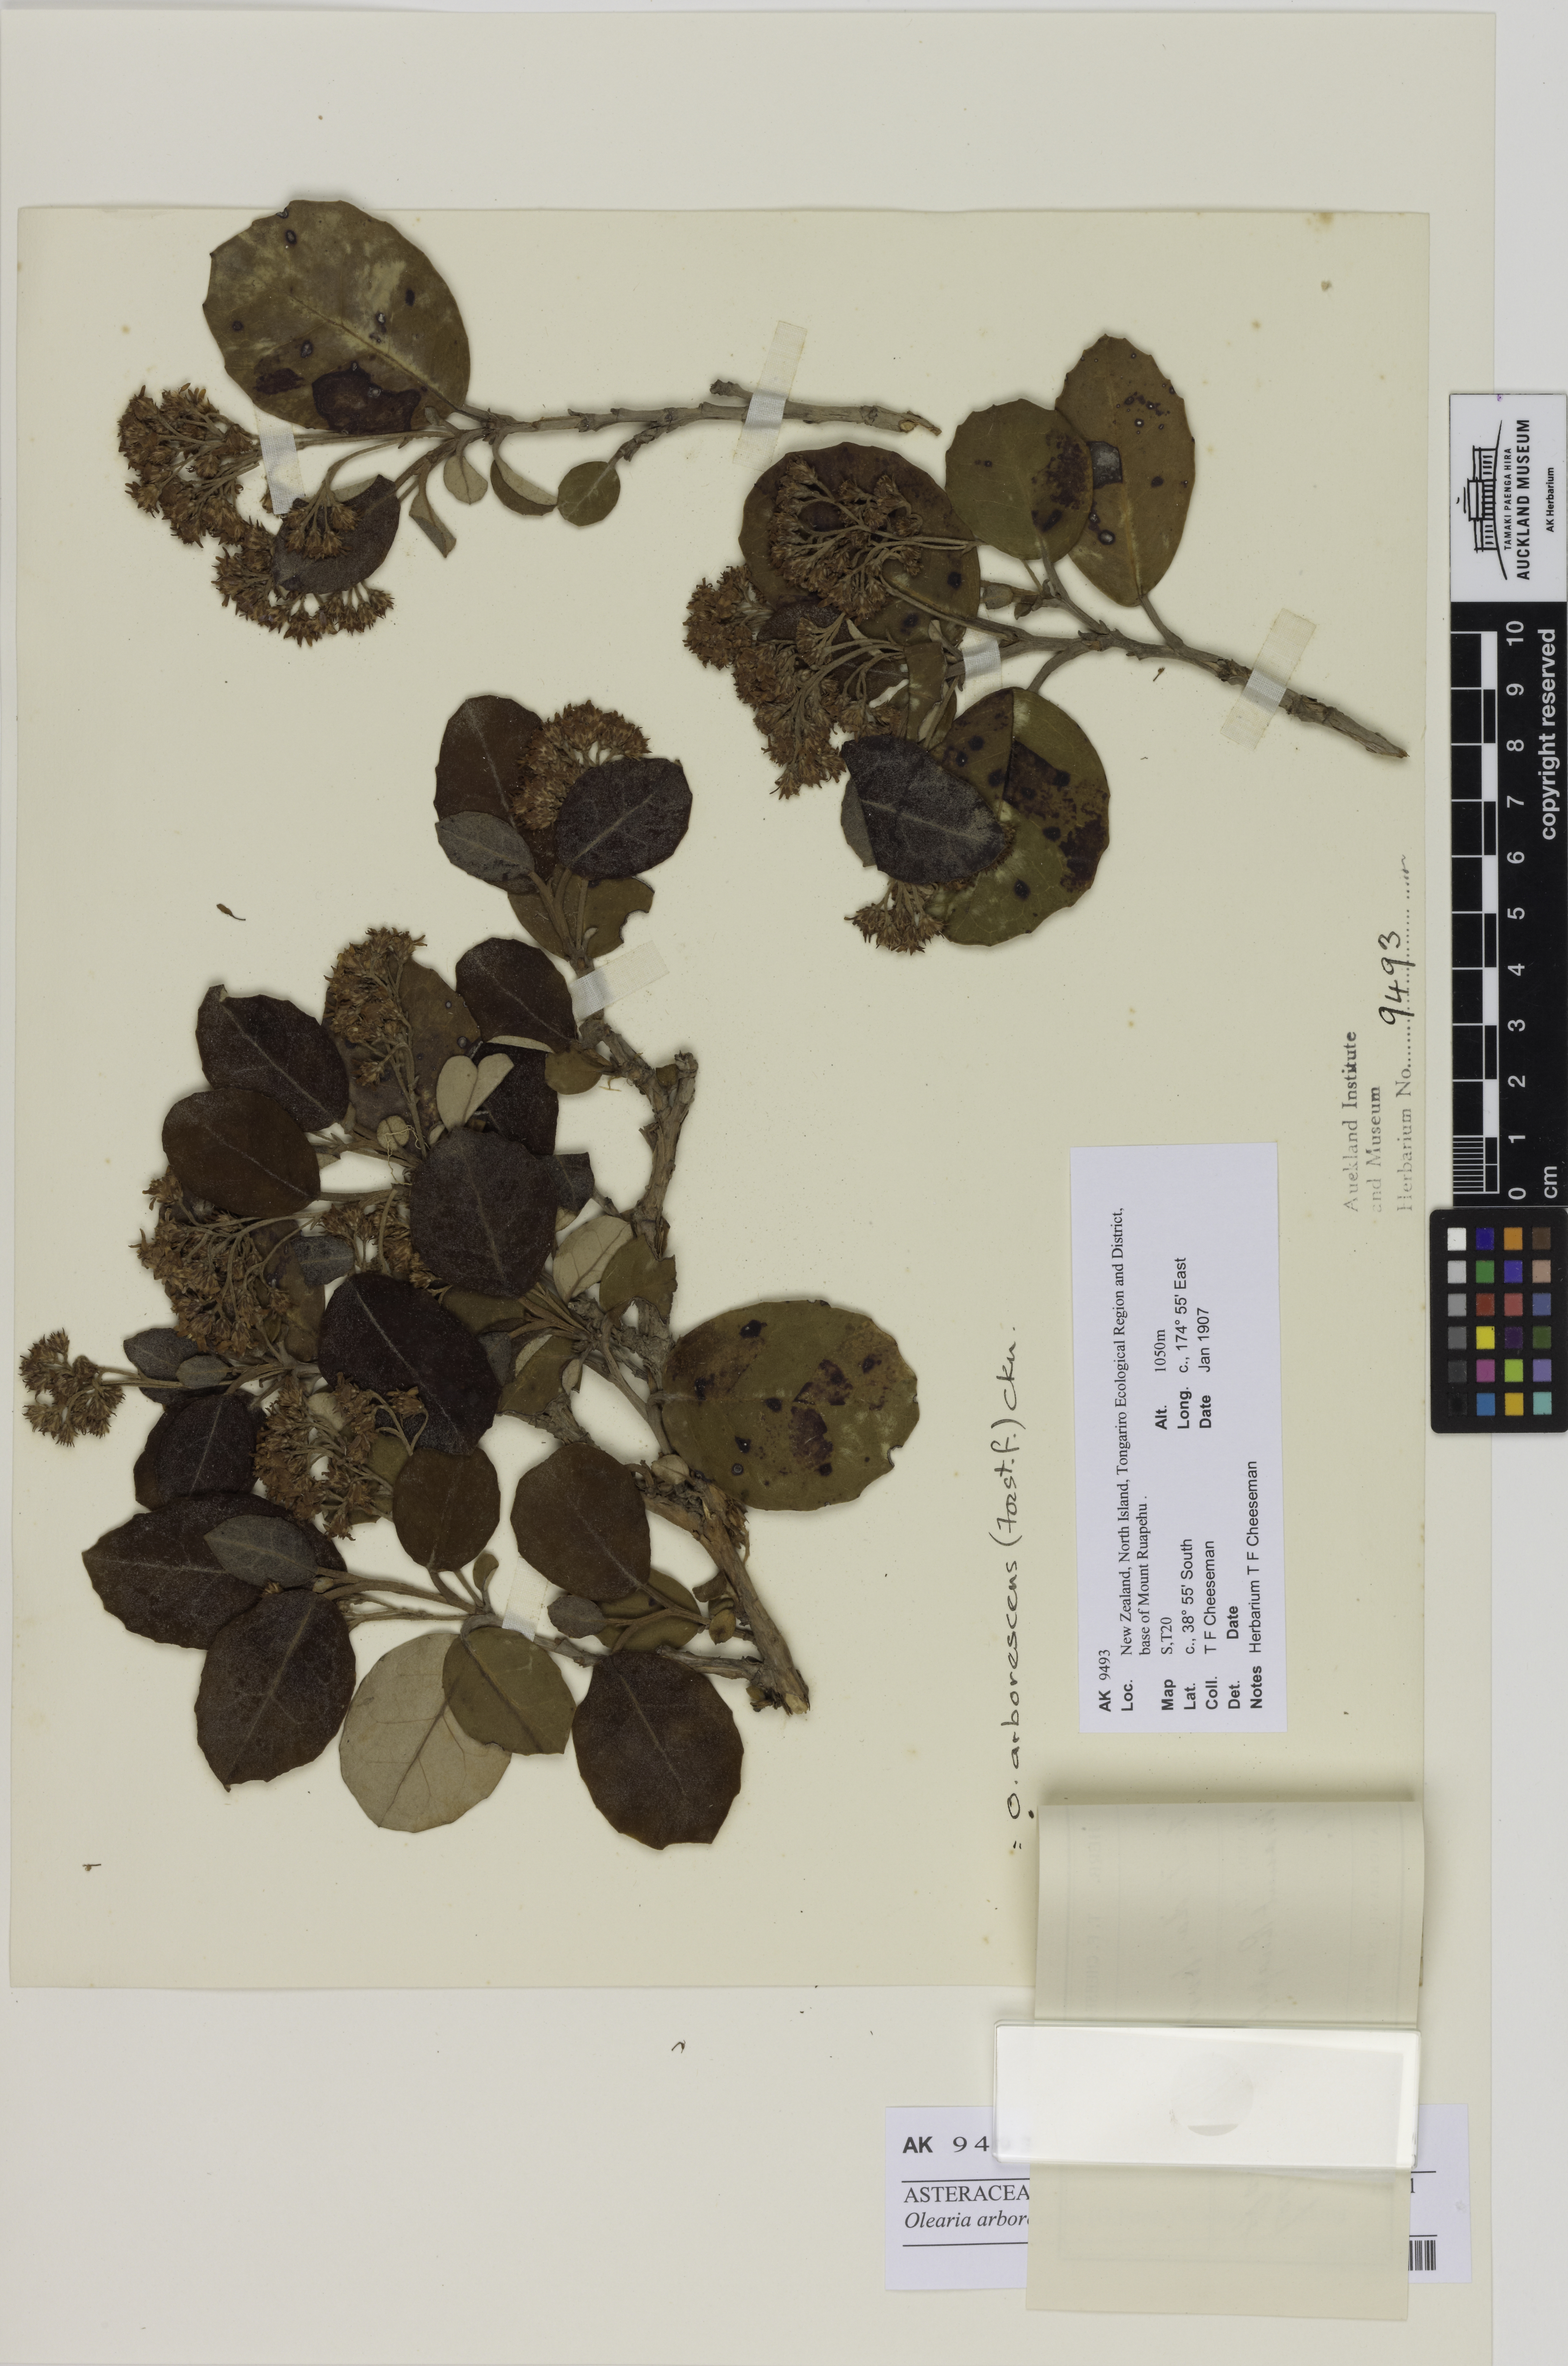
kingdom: Plantae
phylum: Tracheophyta
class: Magnoliopsida
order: Asterales
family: Asteraceae
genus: Olearia
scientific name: Olearia arborescens
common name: Glossy tree daisy
